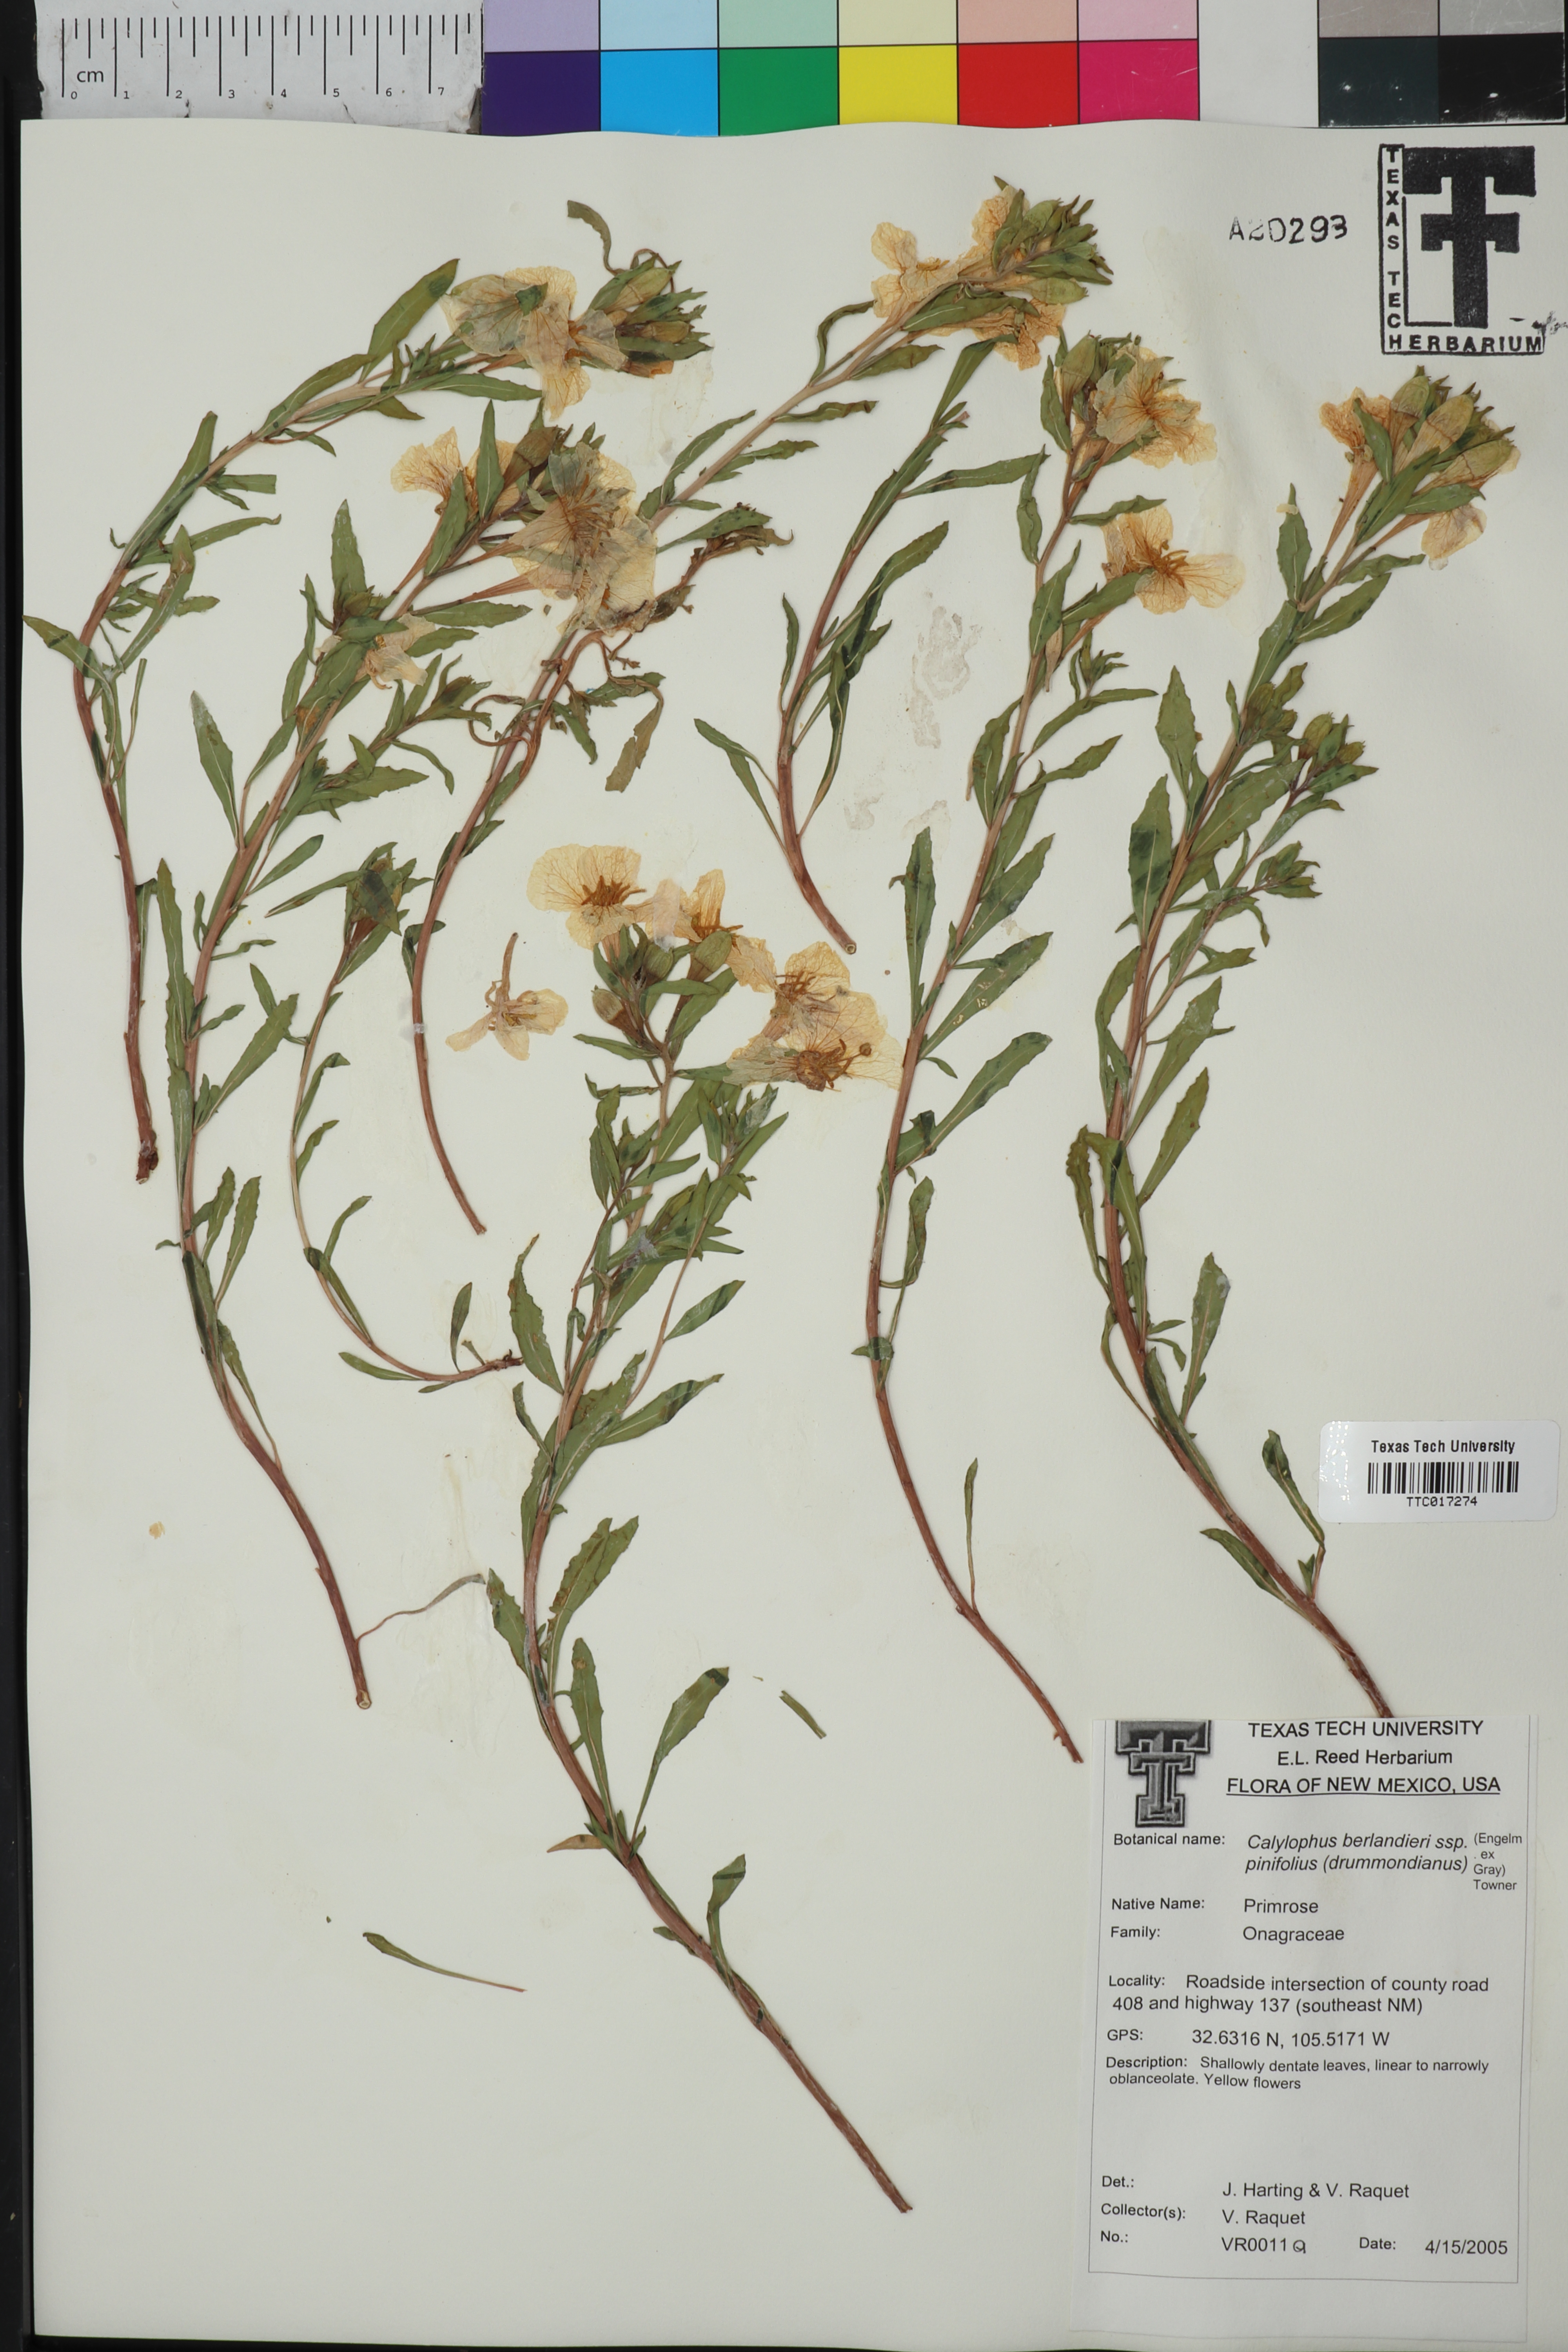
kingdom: Plantae
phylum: Tracheophyta
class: Magnoliopsida
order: Myrtales
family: Onagraceae
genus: Oenothera
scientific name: Oenothera capillifolia
